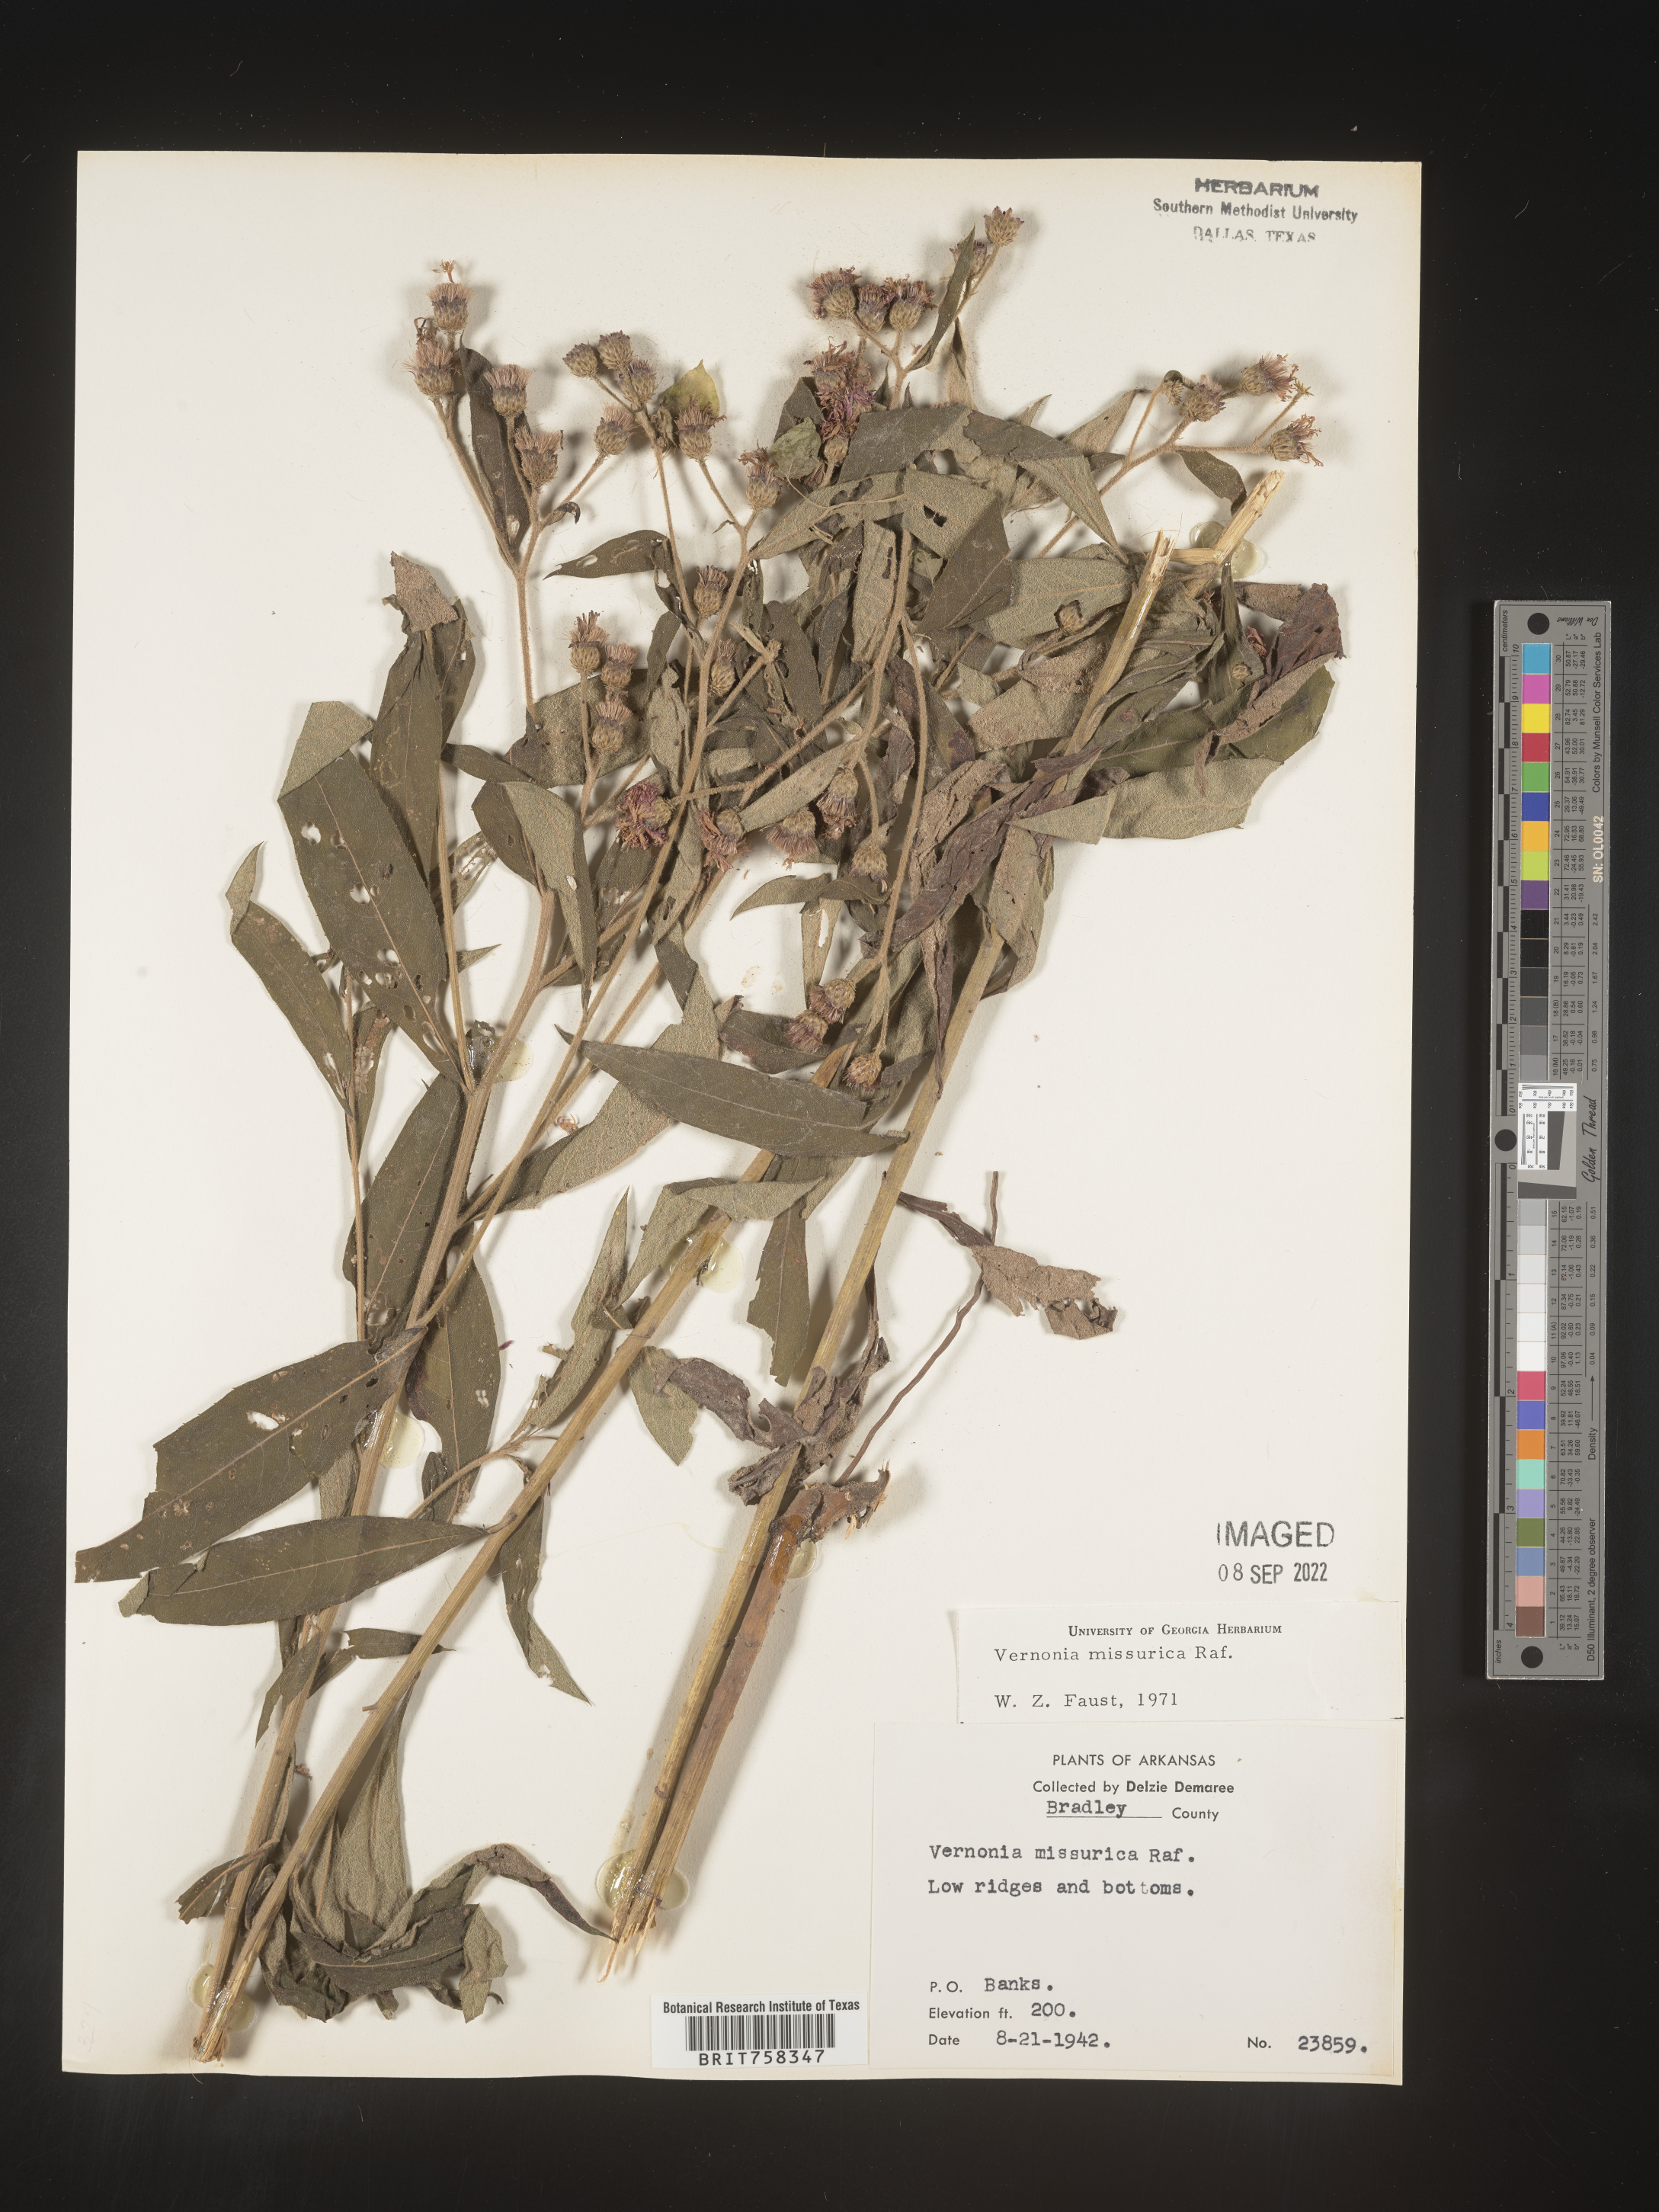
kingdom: Plantae
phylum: Tracheophyta
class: Magnoliopsida
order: Asterales
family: Asteraceae
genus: Vernonia
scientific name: Vernonia missurica
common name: Missouri ironweed
